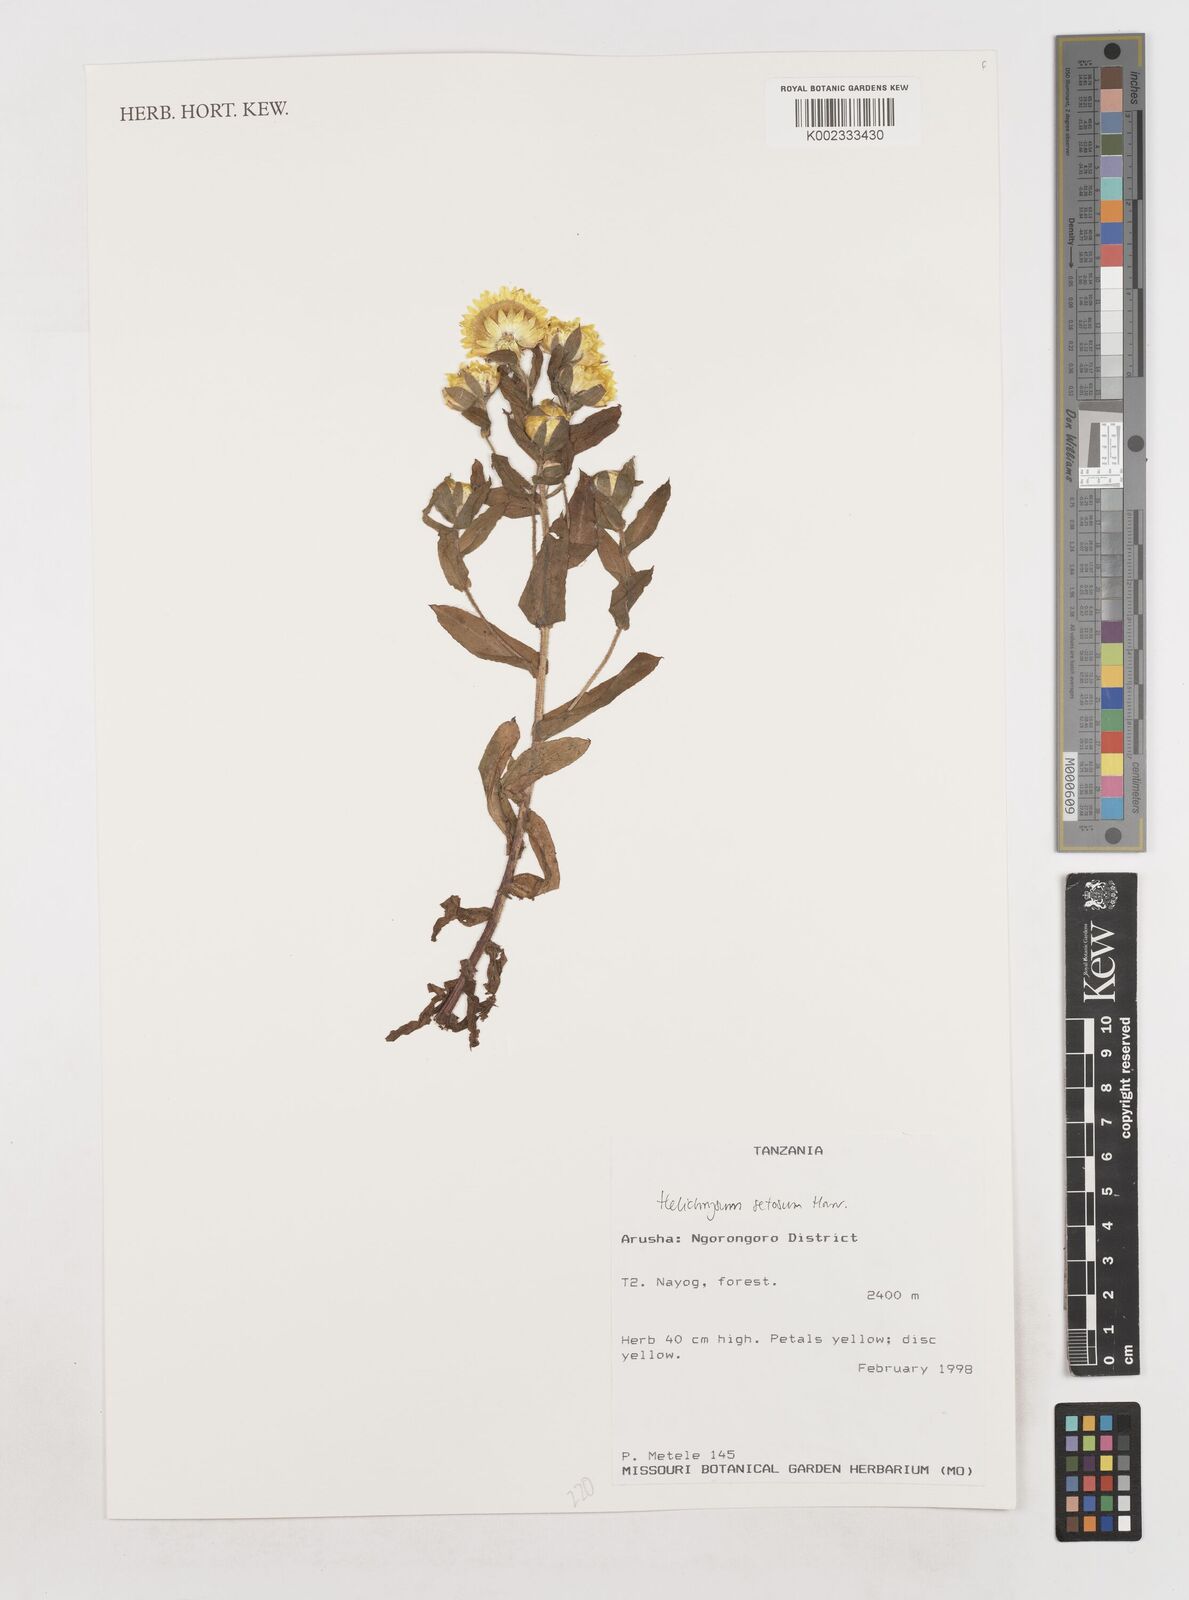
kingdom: Plantae
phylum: Tracheophyta
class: Magnoliopsida
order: Asterales
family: Asteraceae
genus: Helichrysum
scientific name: Helichrysum setosum
